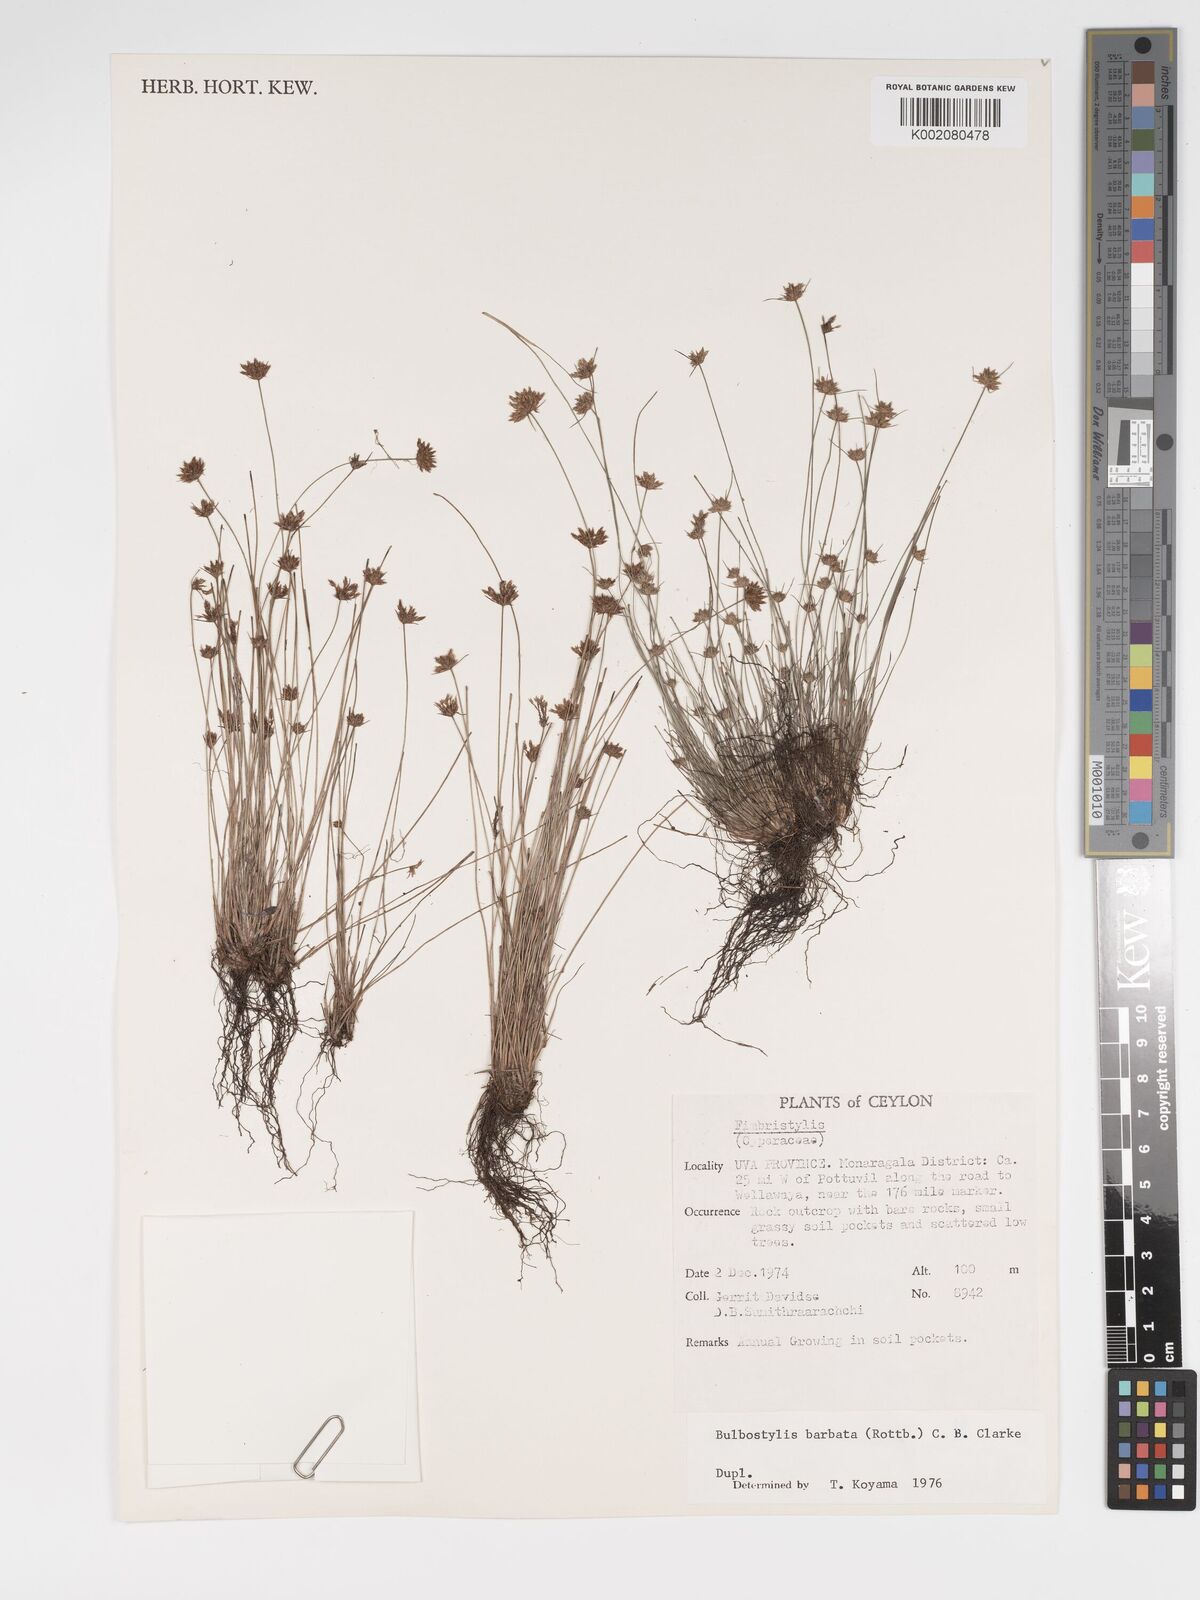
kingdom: Plantae
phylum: Tracheophyta
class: Liliopsida
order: Poales
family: Cyperaceae
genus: Bulbostylis
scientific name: Bulbostylis barbata
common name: Watergrass
